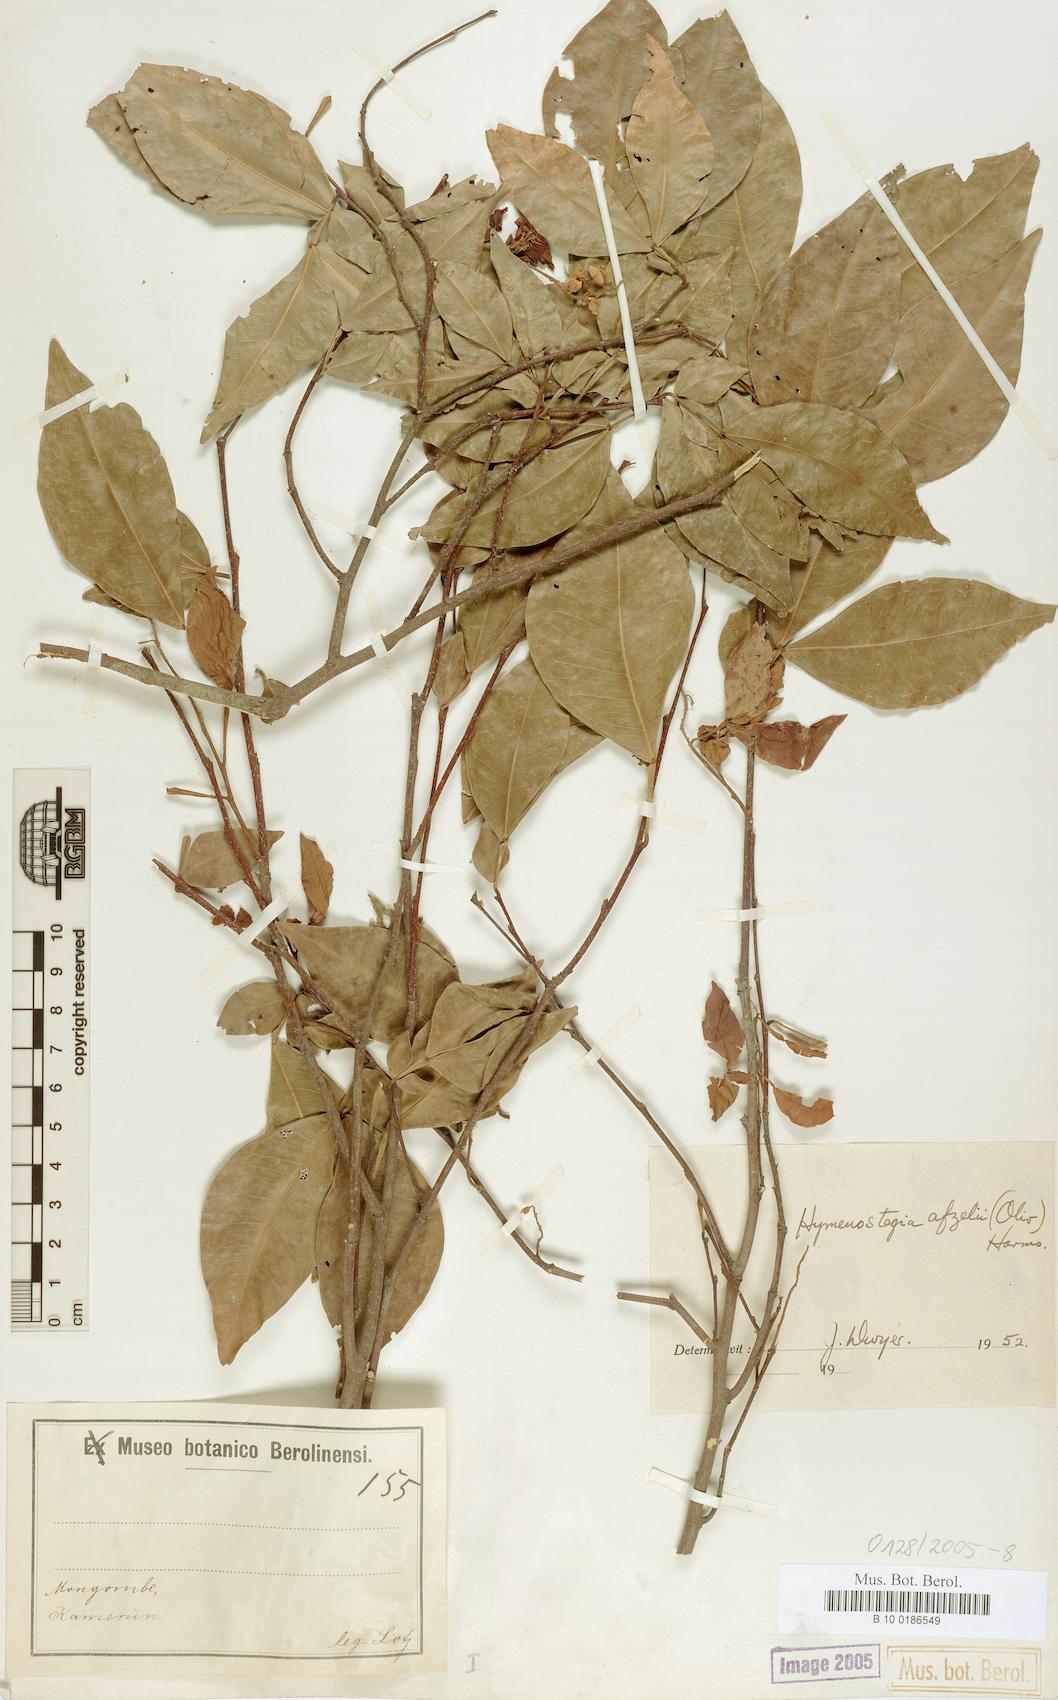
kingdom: Plantae
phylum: Tracheophyta
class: Magnoliopsida
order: Fabales
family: Fabaceae
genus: Annea
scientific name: Annea afzelii
